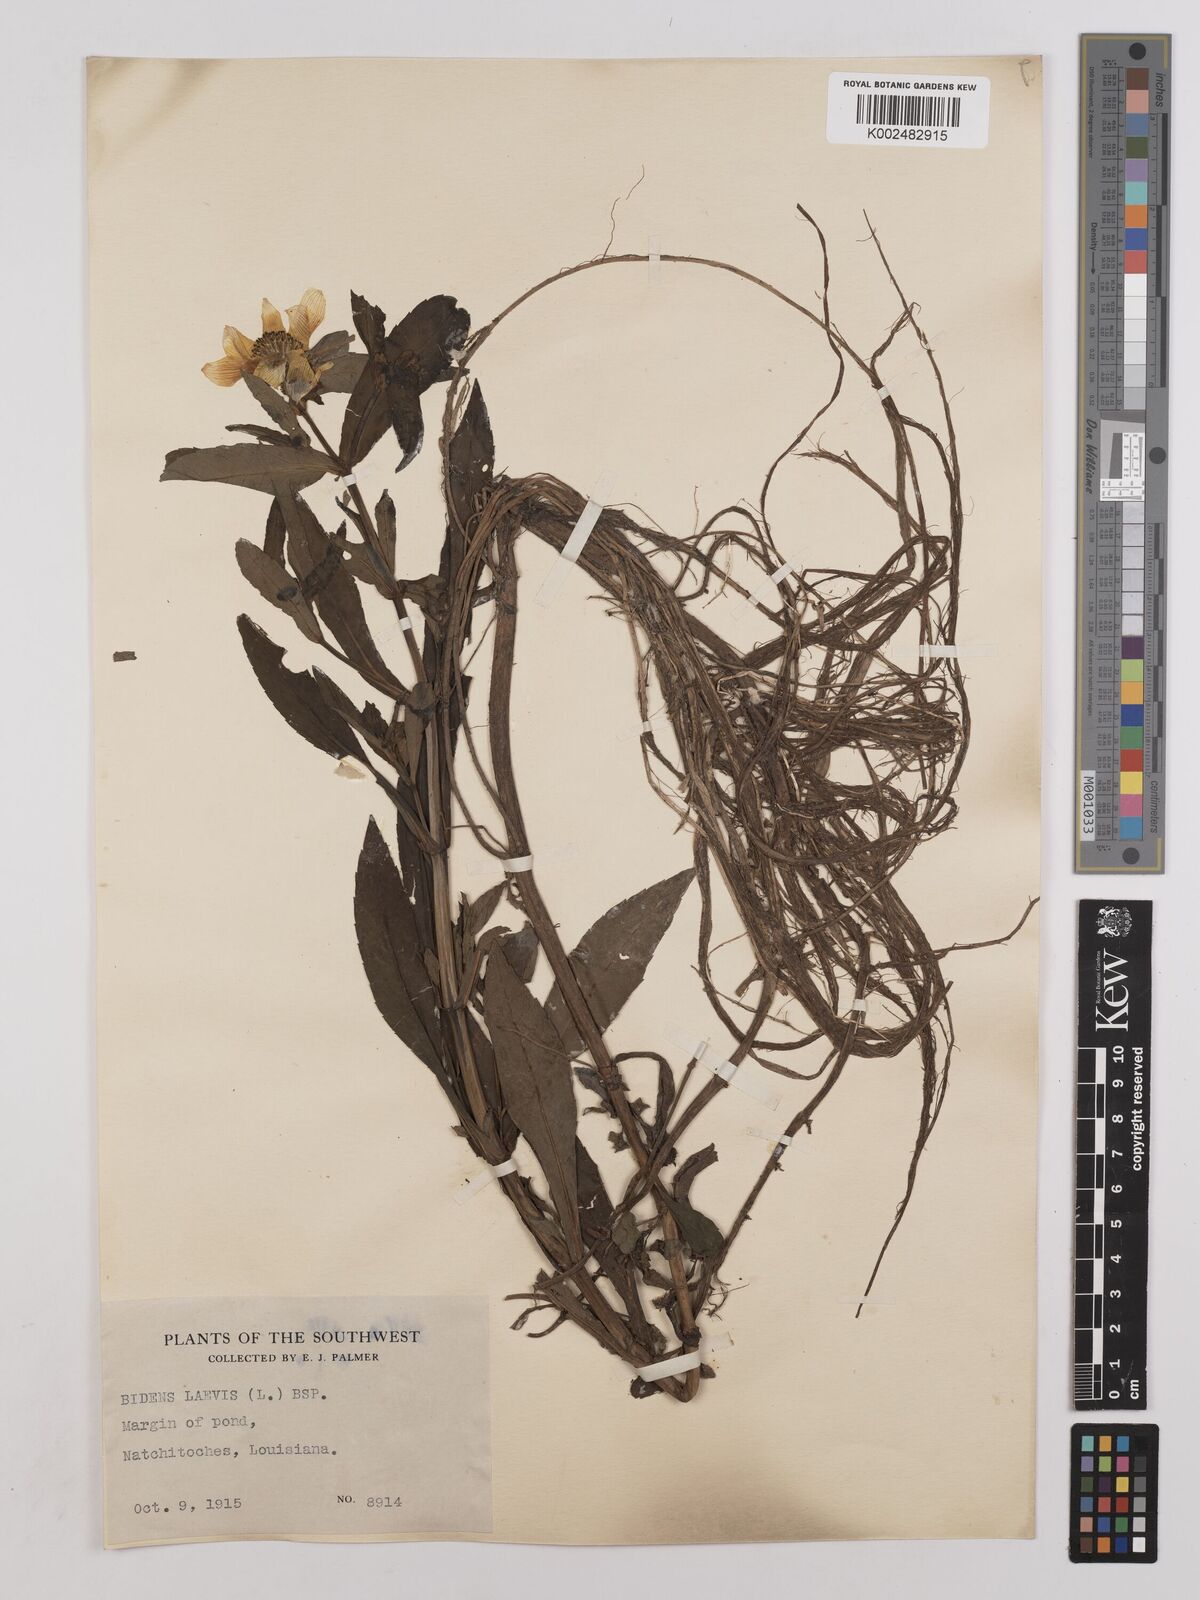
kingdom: Plantae
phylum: Tracheophyta
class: Magnoliopsida
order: Asterales
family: Asteraceae
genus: Bidens
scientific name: Bidens
